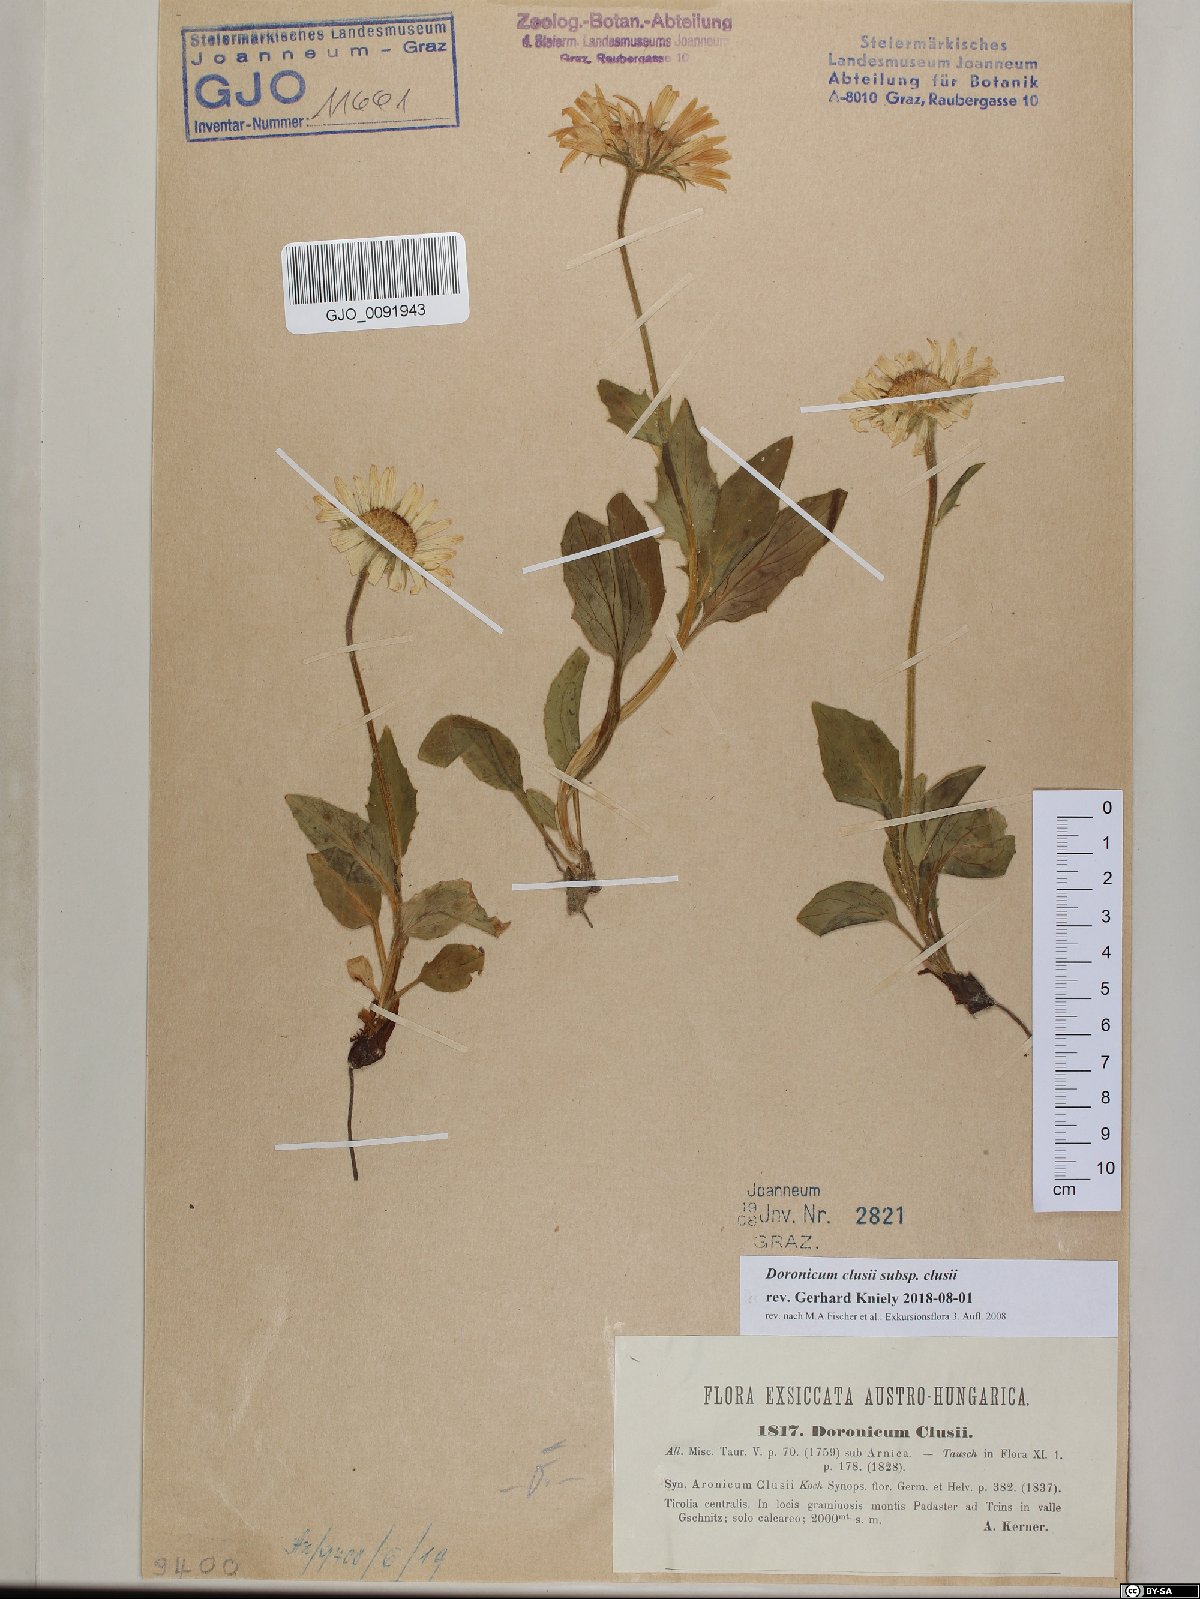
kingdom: Plantae
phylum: Tracheophyta
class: Magnoliopsida
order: Asterales
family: Asteraceae
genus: Doronicum
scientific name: Doronicum clusii
